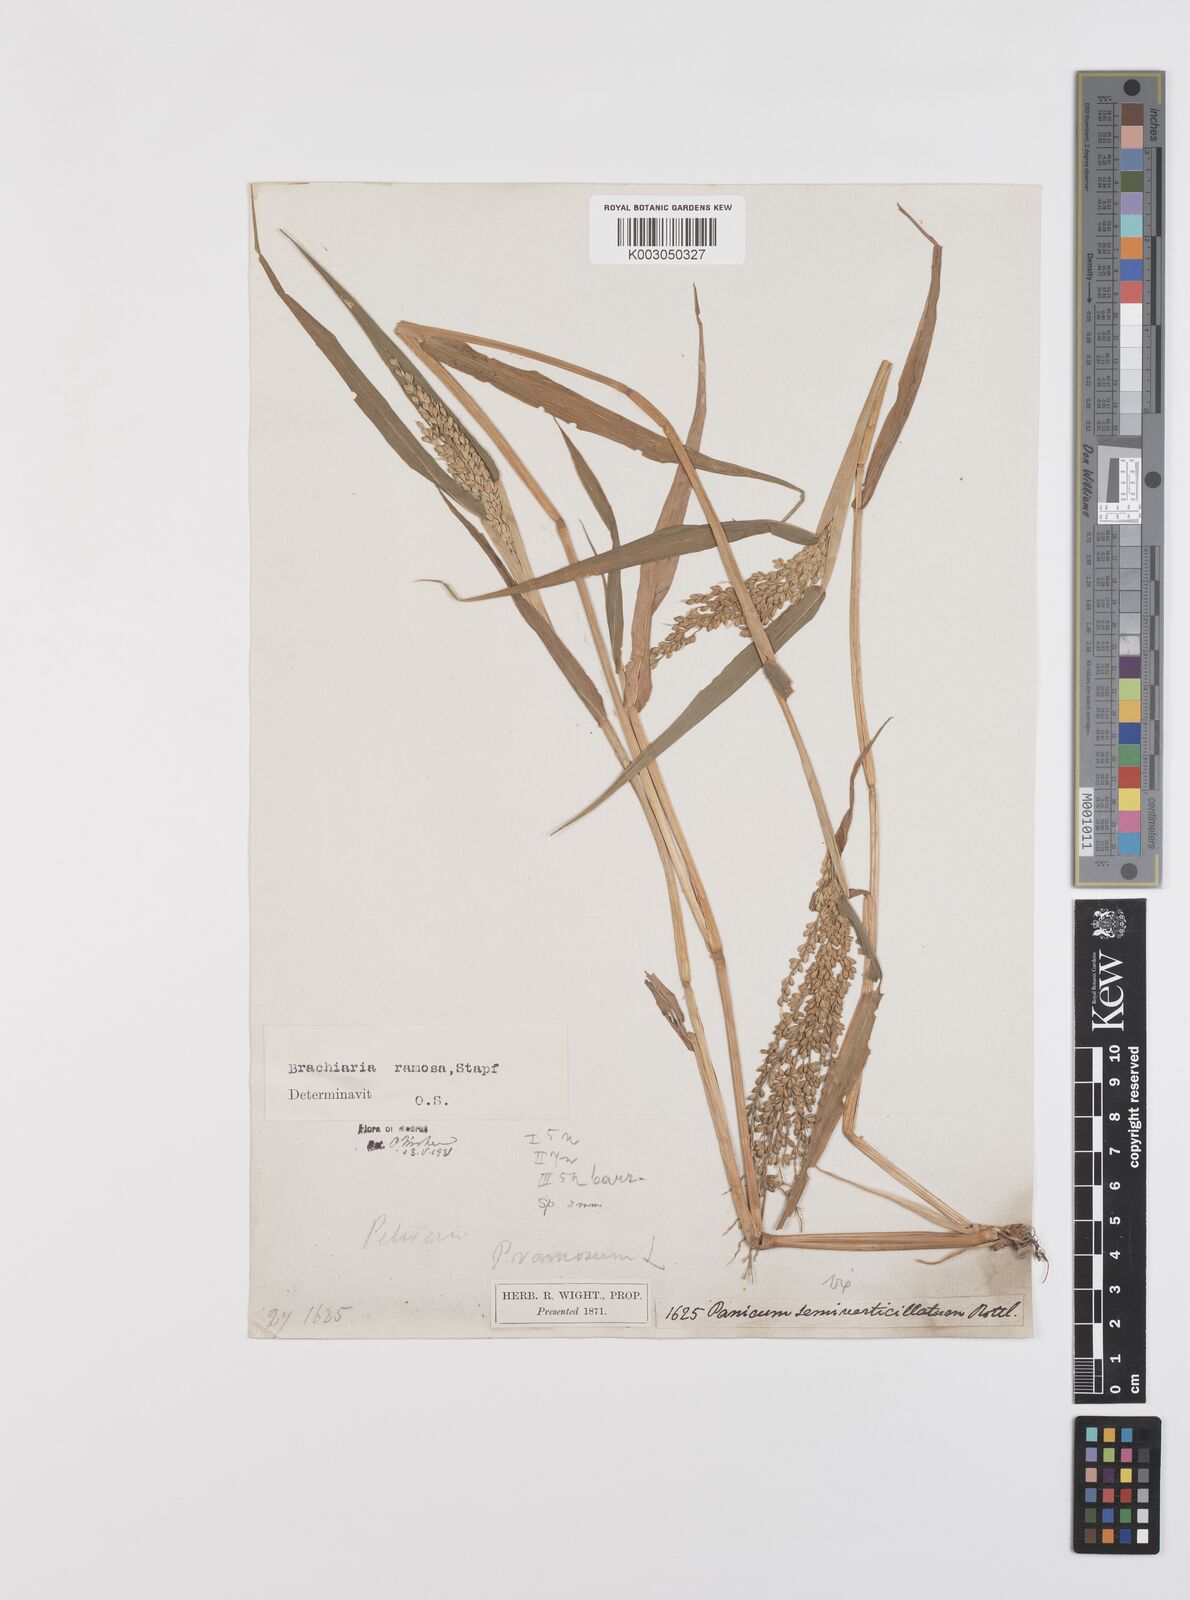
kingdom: Plantae
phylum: Tracheophyta
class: Liliopsida
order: Poales
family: Poaceae
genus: Urochloa
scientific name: Urochloa ramosa
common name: Browntop millet
